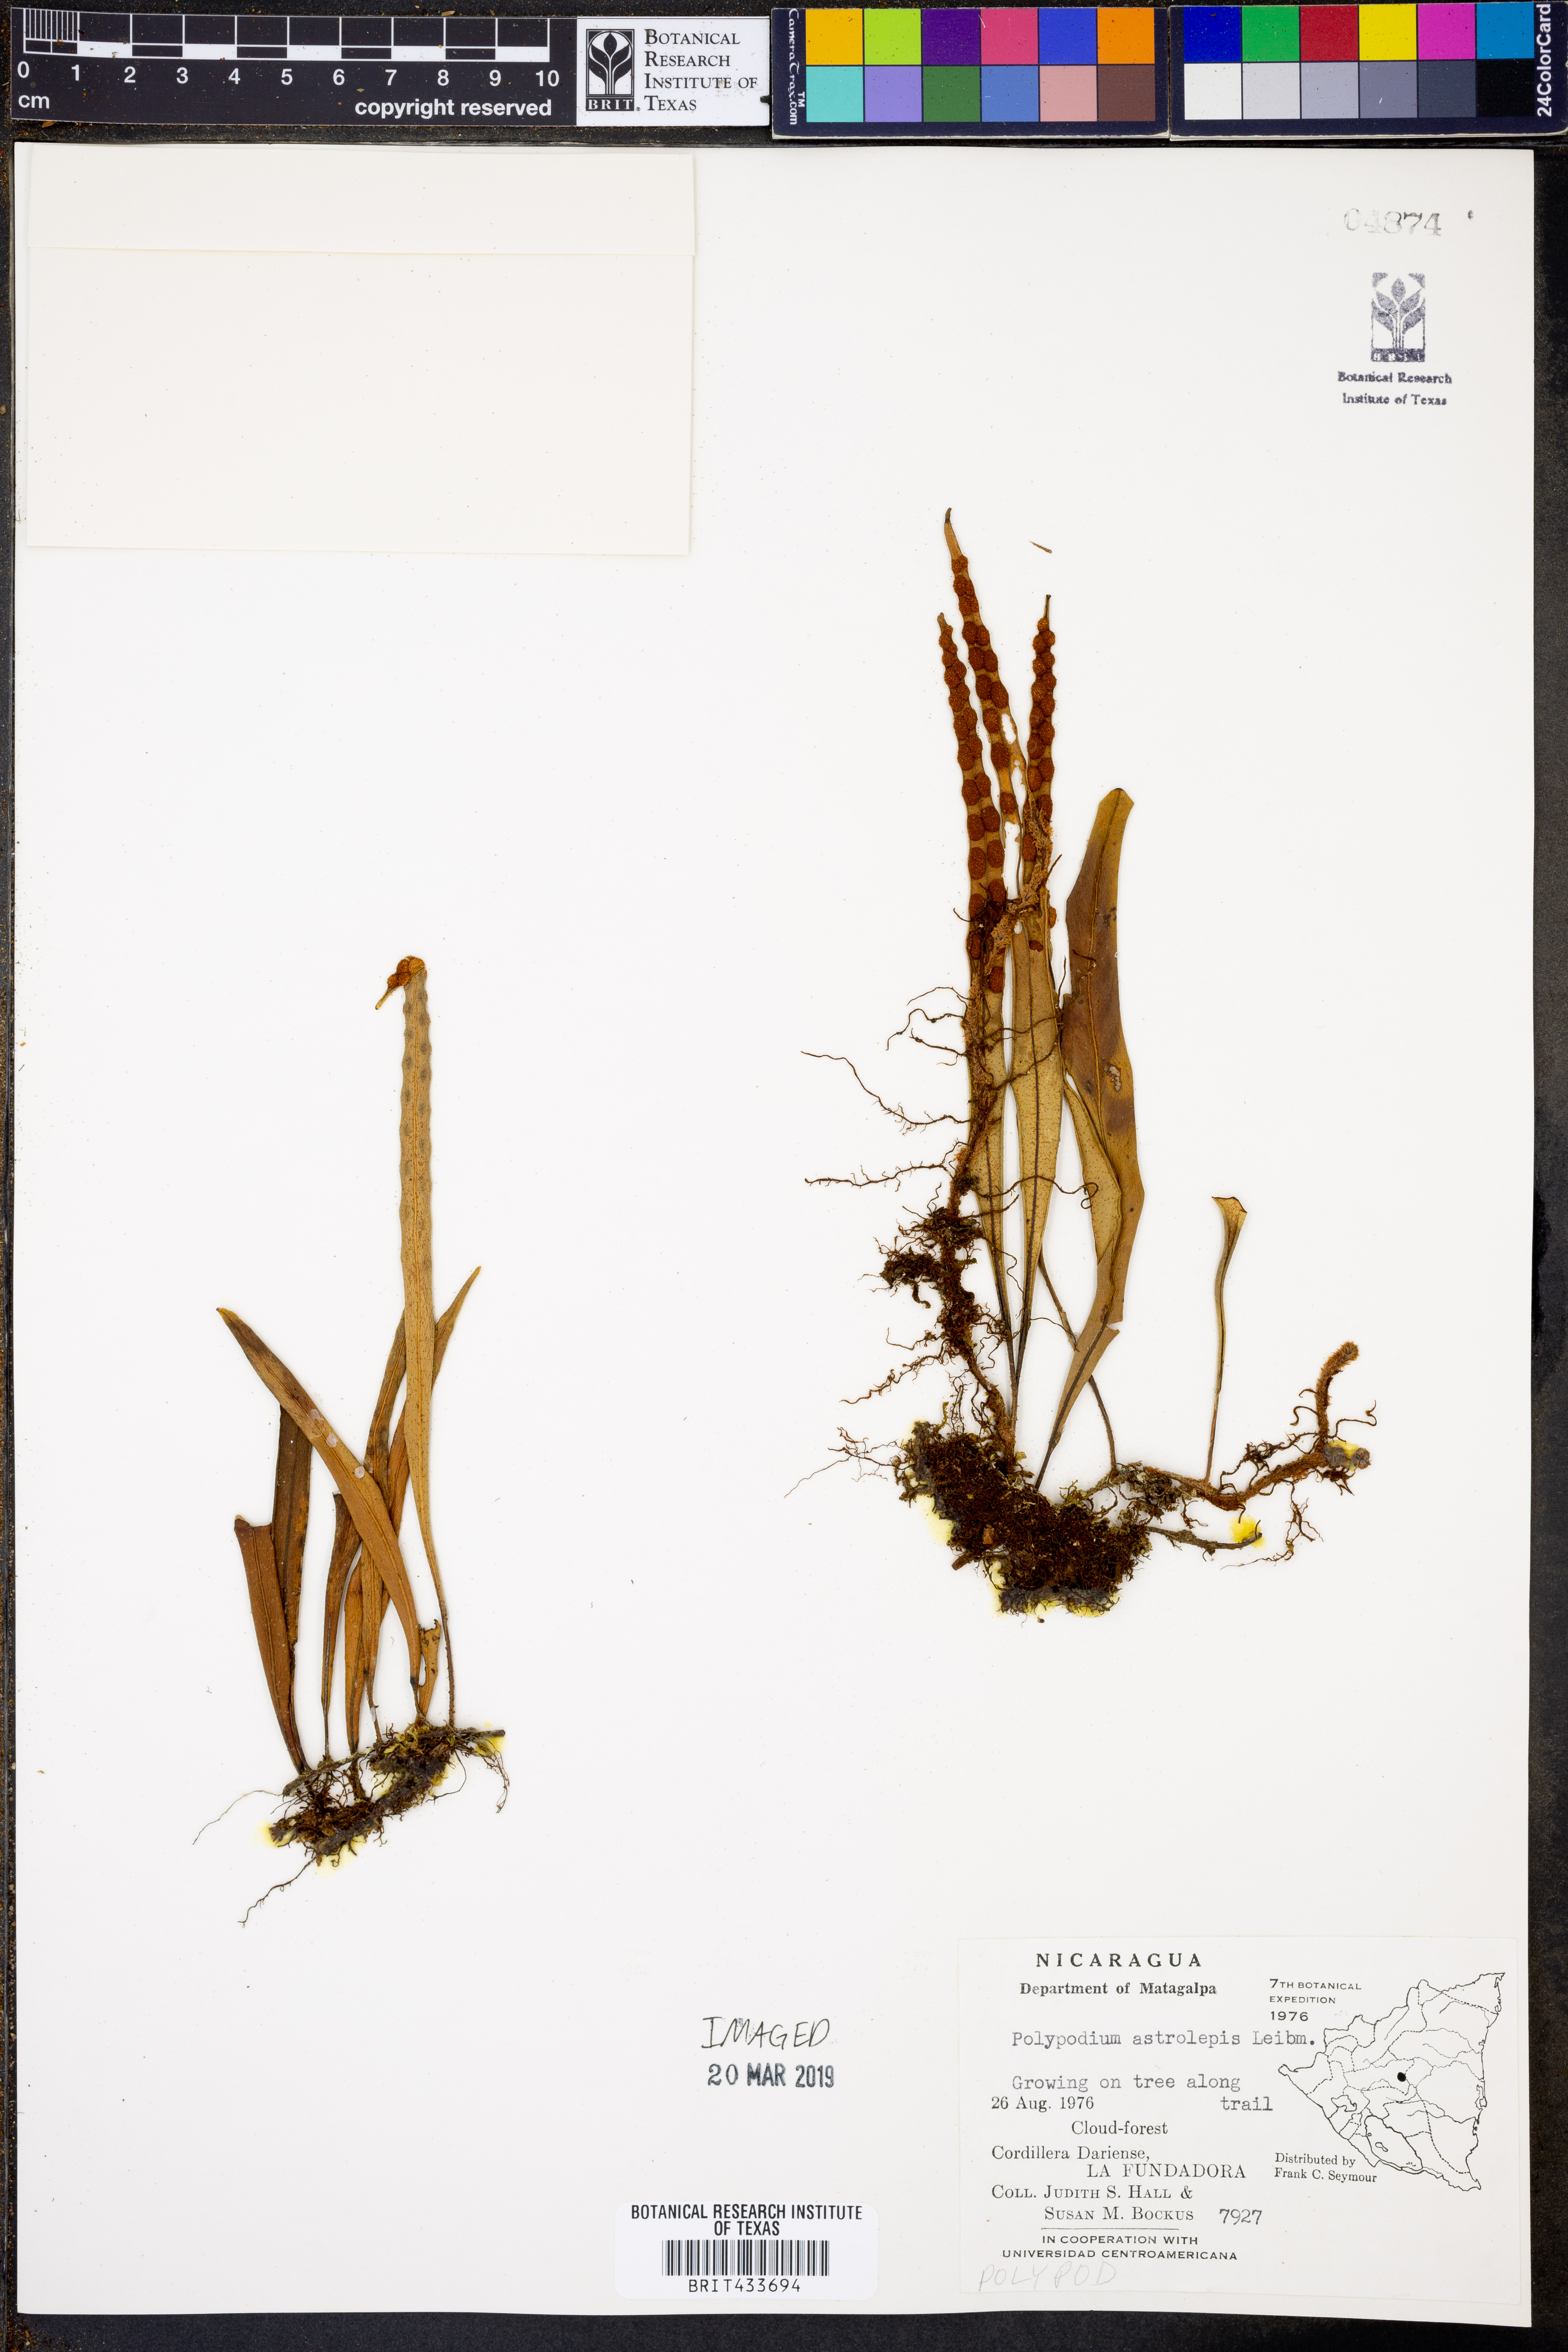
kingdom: Plantae
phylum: Tracheophyta
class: Polypodiopsida
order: Polypodiales
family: Polypodiaceae
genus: Pleopeltis
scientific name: Pleopeltis astrolepis
